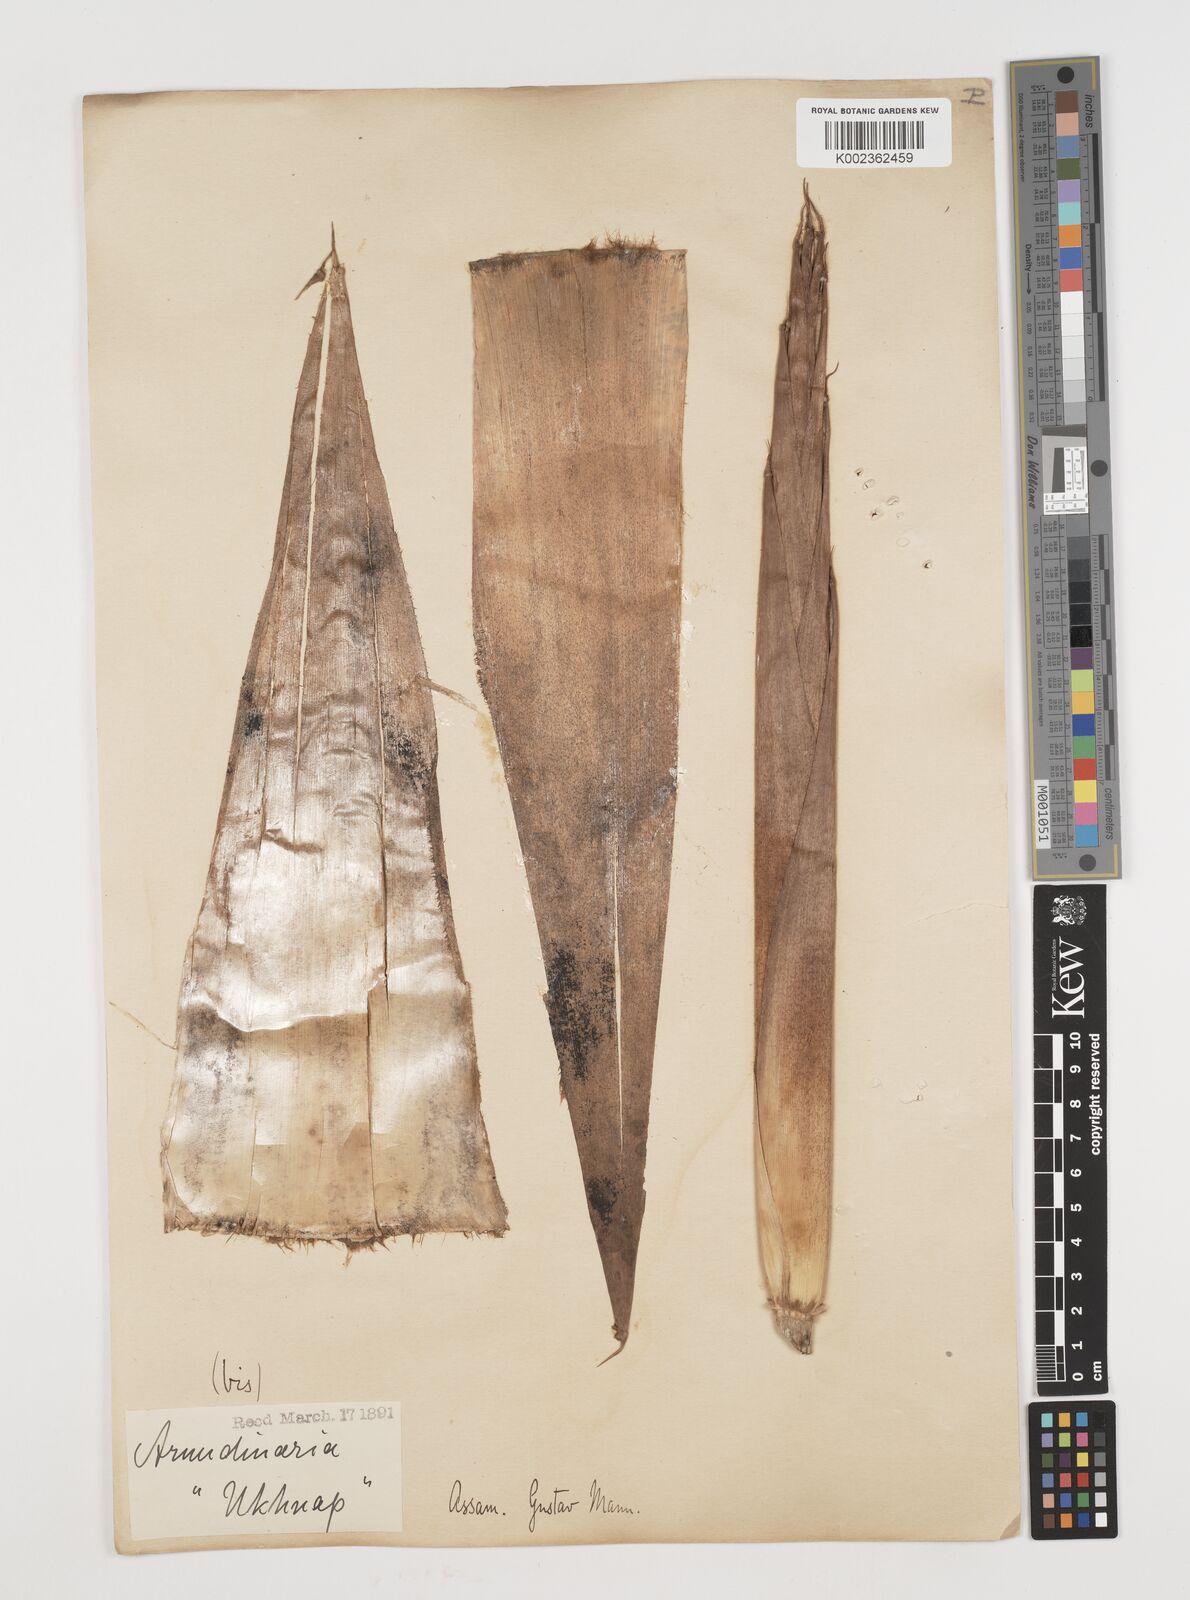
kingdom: Plantae
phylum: Tracheophyta
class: Liliopsida
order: Poales
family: Poaceae
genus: Chimonocalamus
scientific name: Chimonocalamus griffithianus
